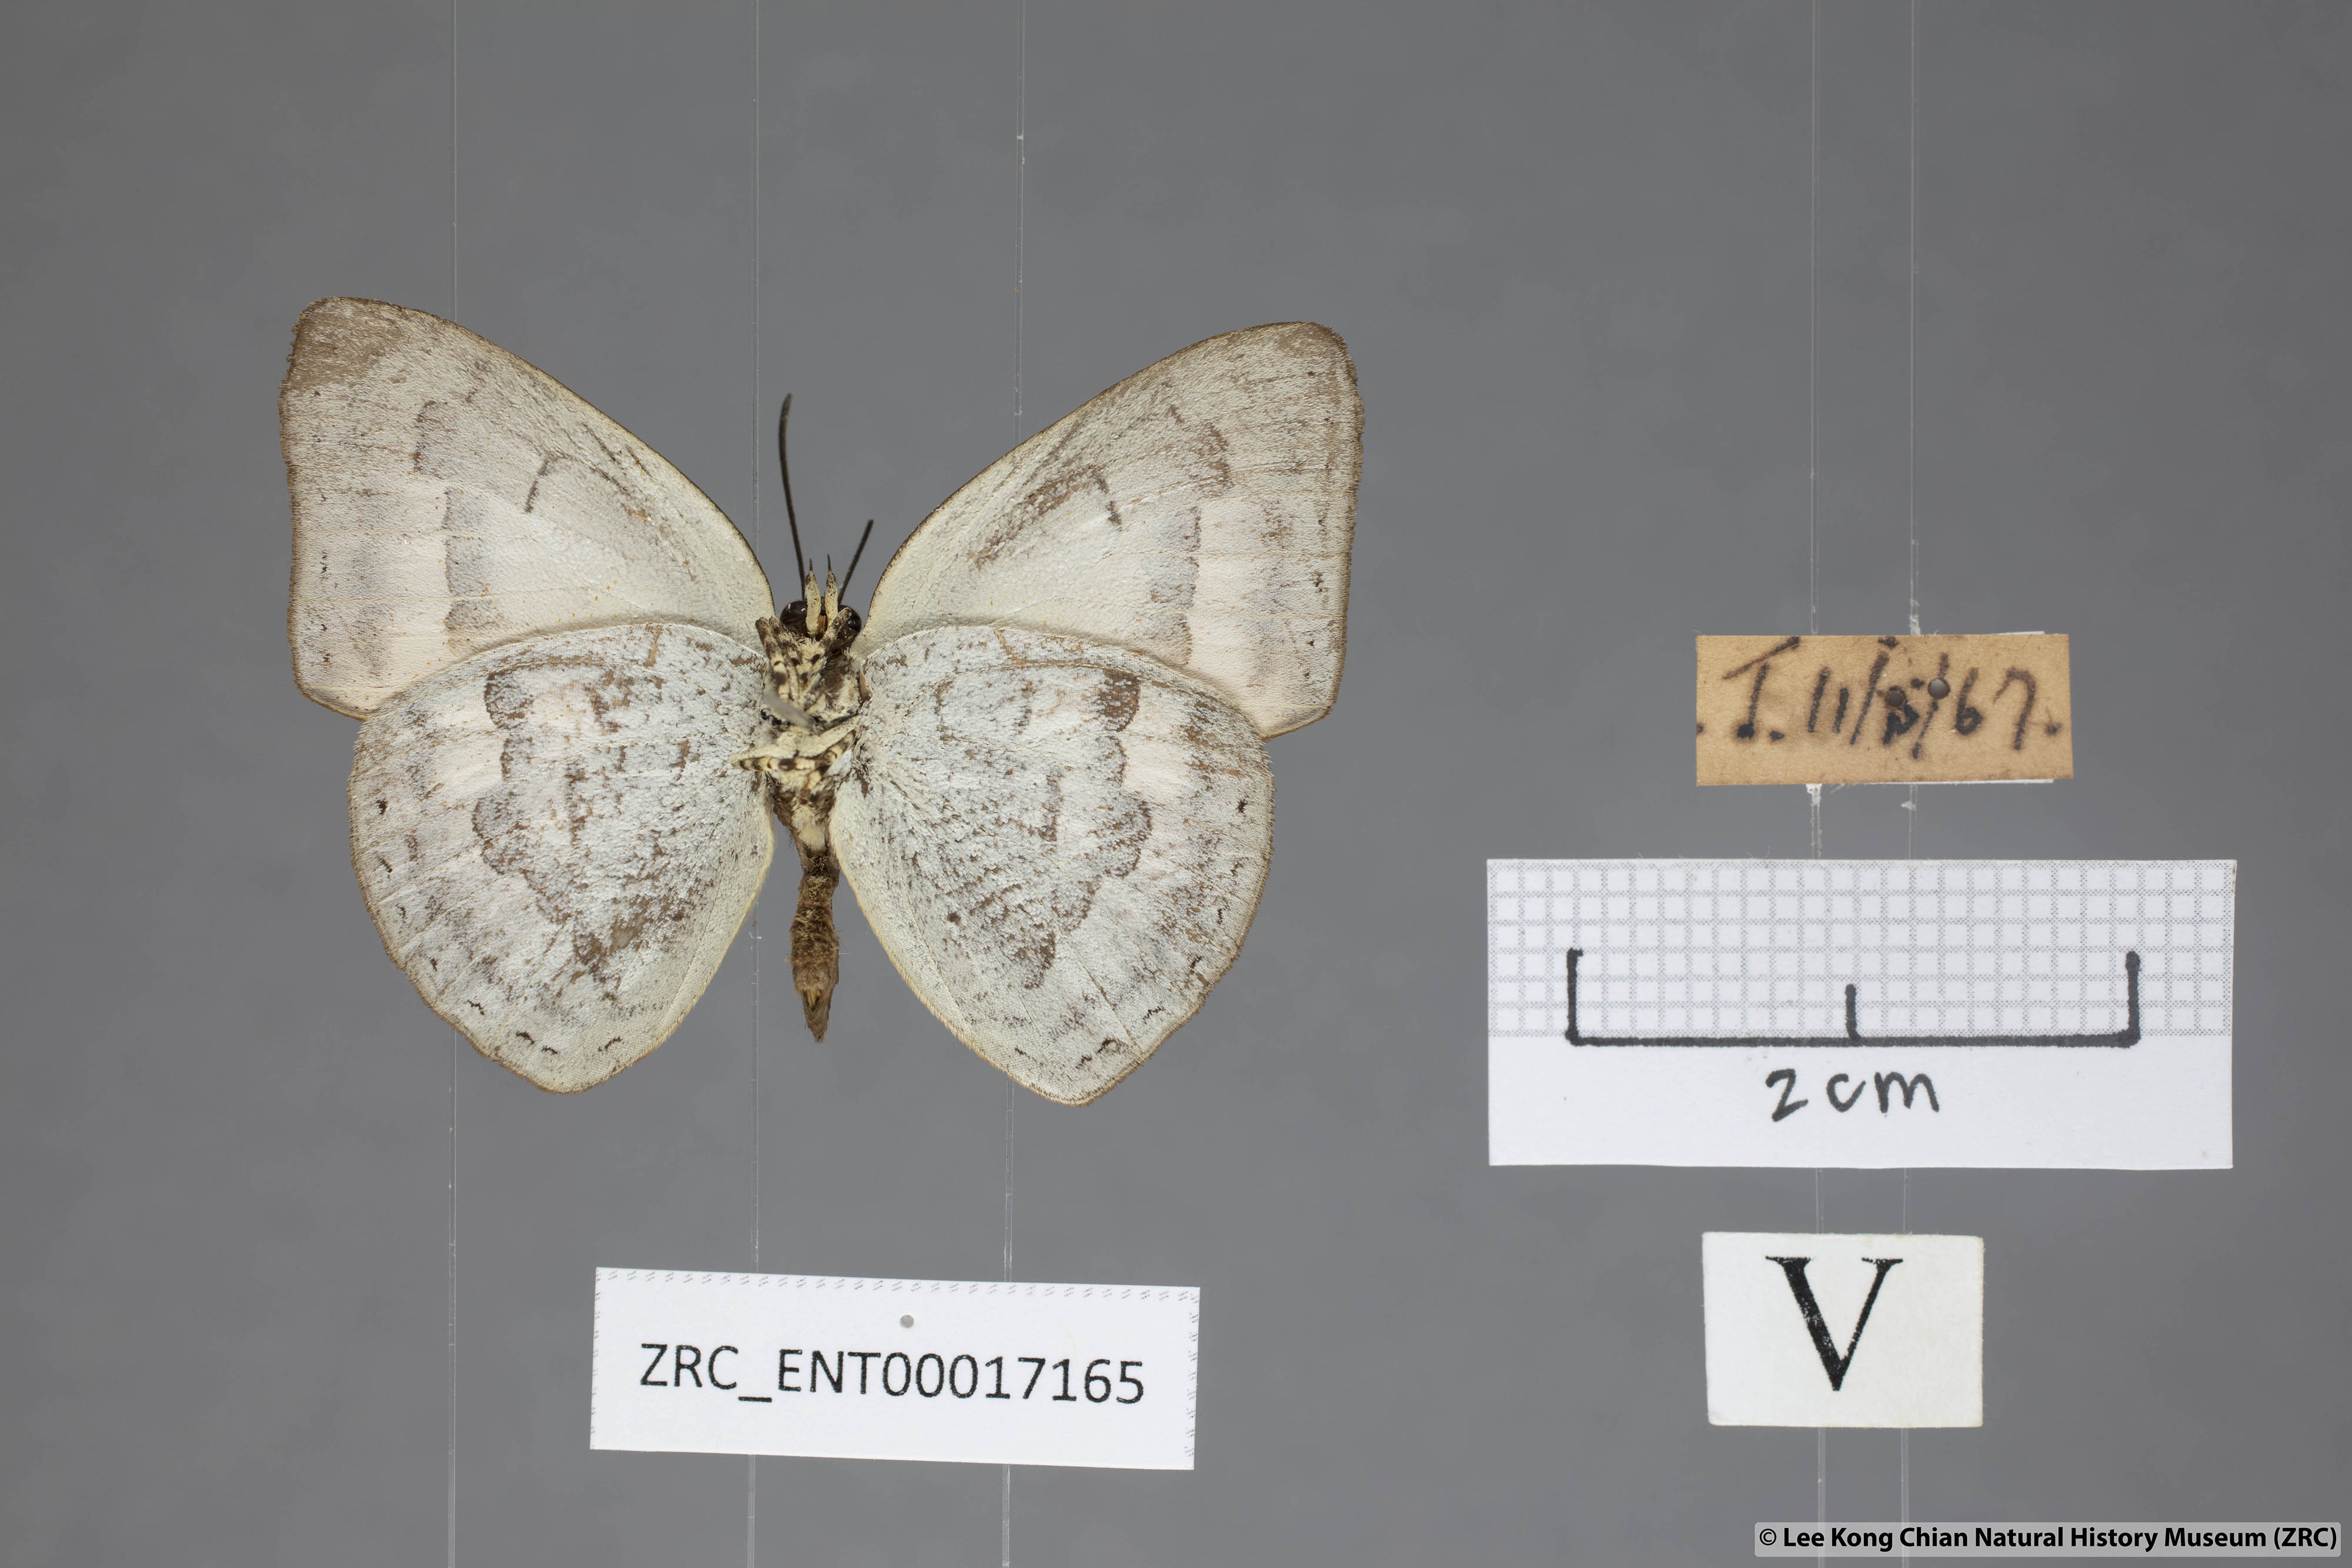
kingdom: Animalia
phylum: Arthropoda
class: Insecta
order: Lepidoptera
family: Lycaenidae
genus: Curetis
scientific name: Curetis tagalica
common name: Southern sunbeam
